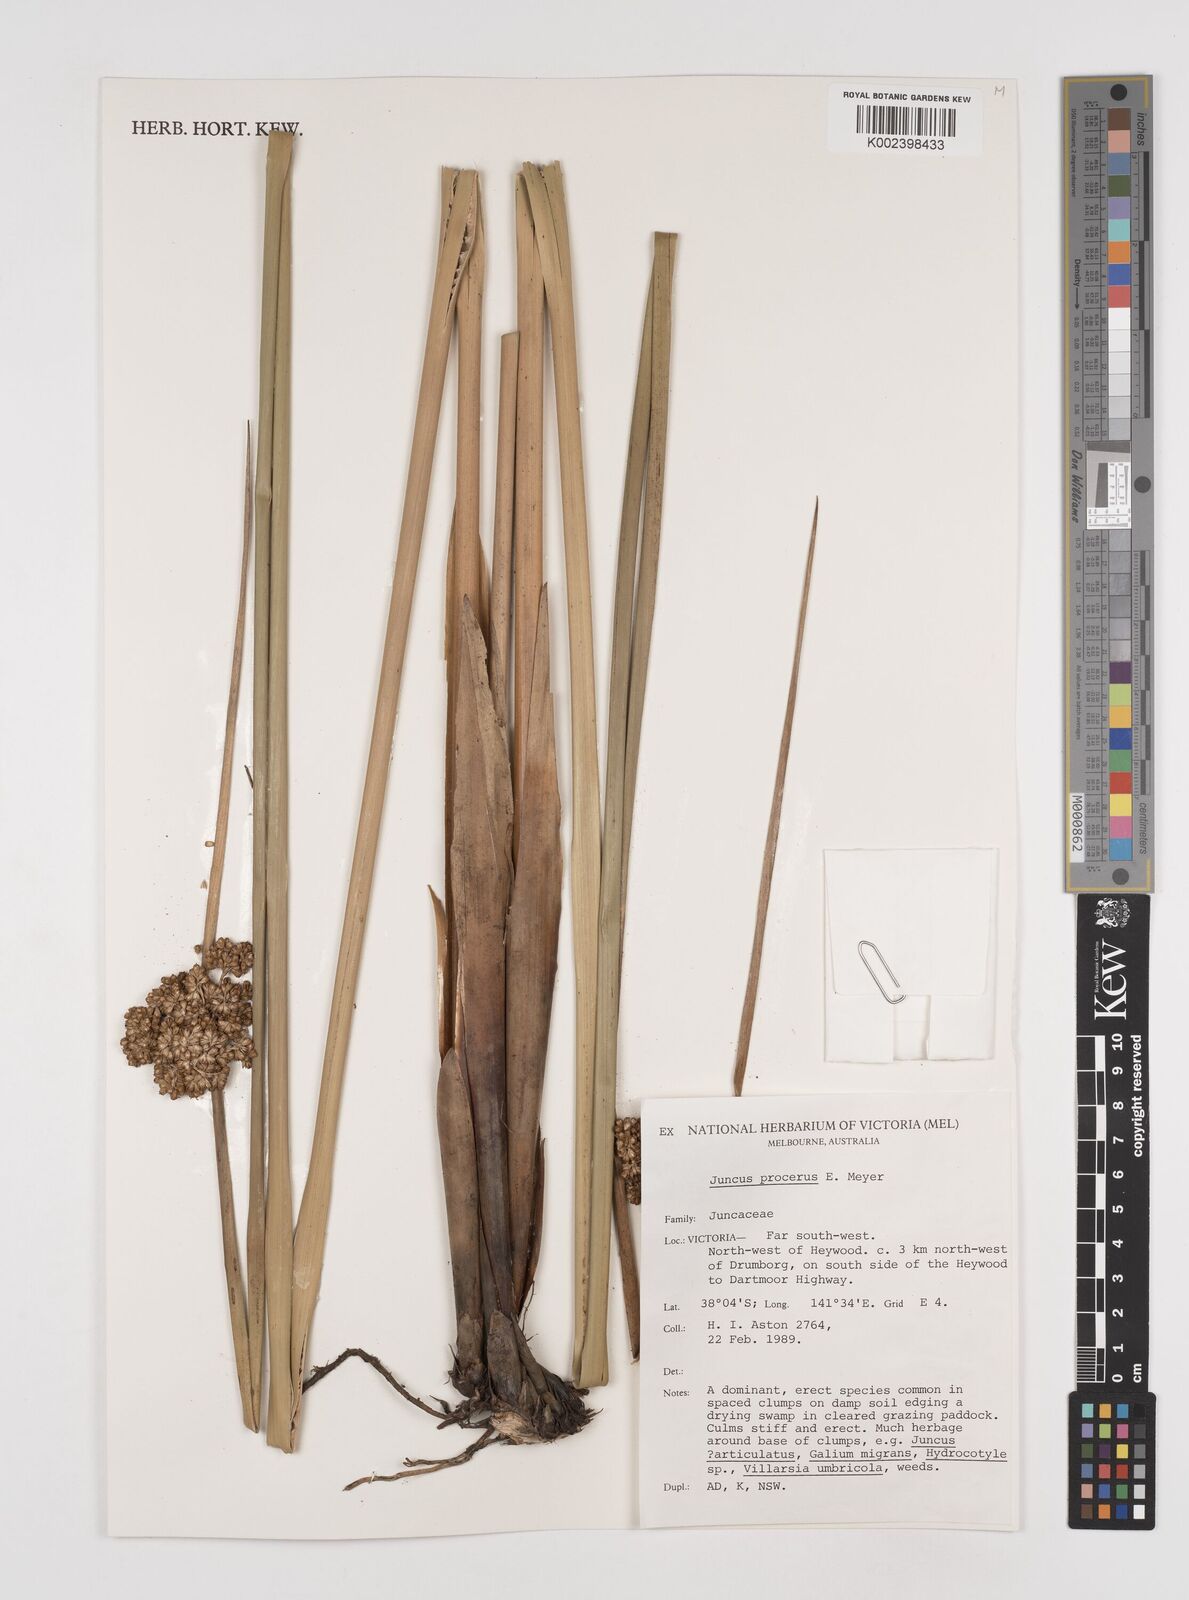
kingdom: Plantae
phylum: Tracheophyta
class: Liliopsida
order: Poales
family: Juncaceae
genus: Juncus
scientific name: Juncus procerus
